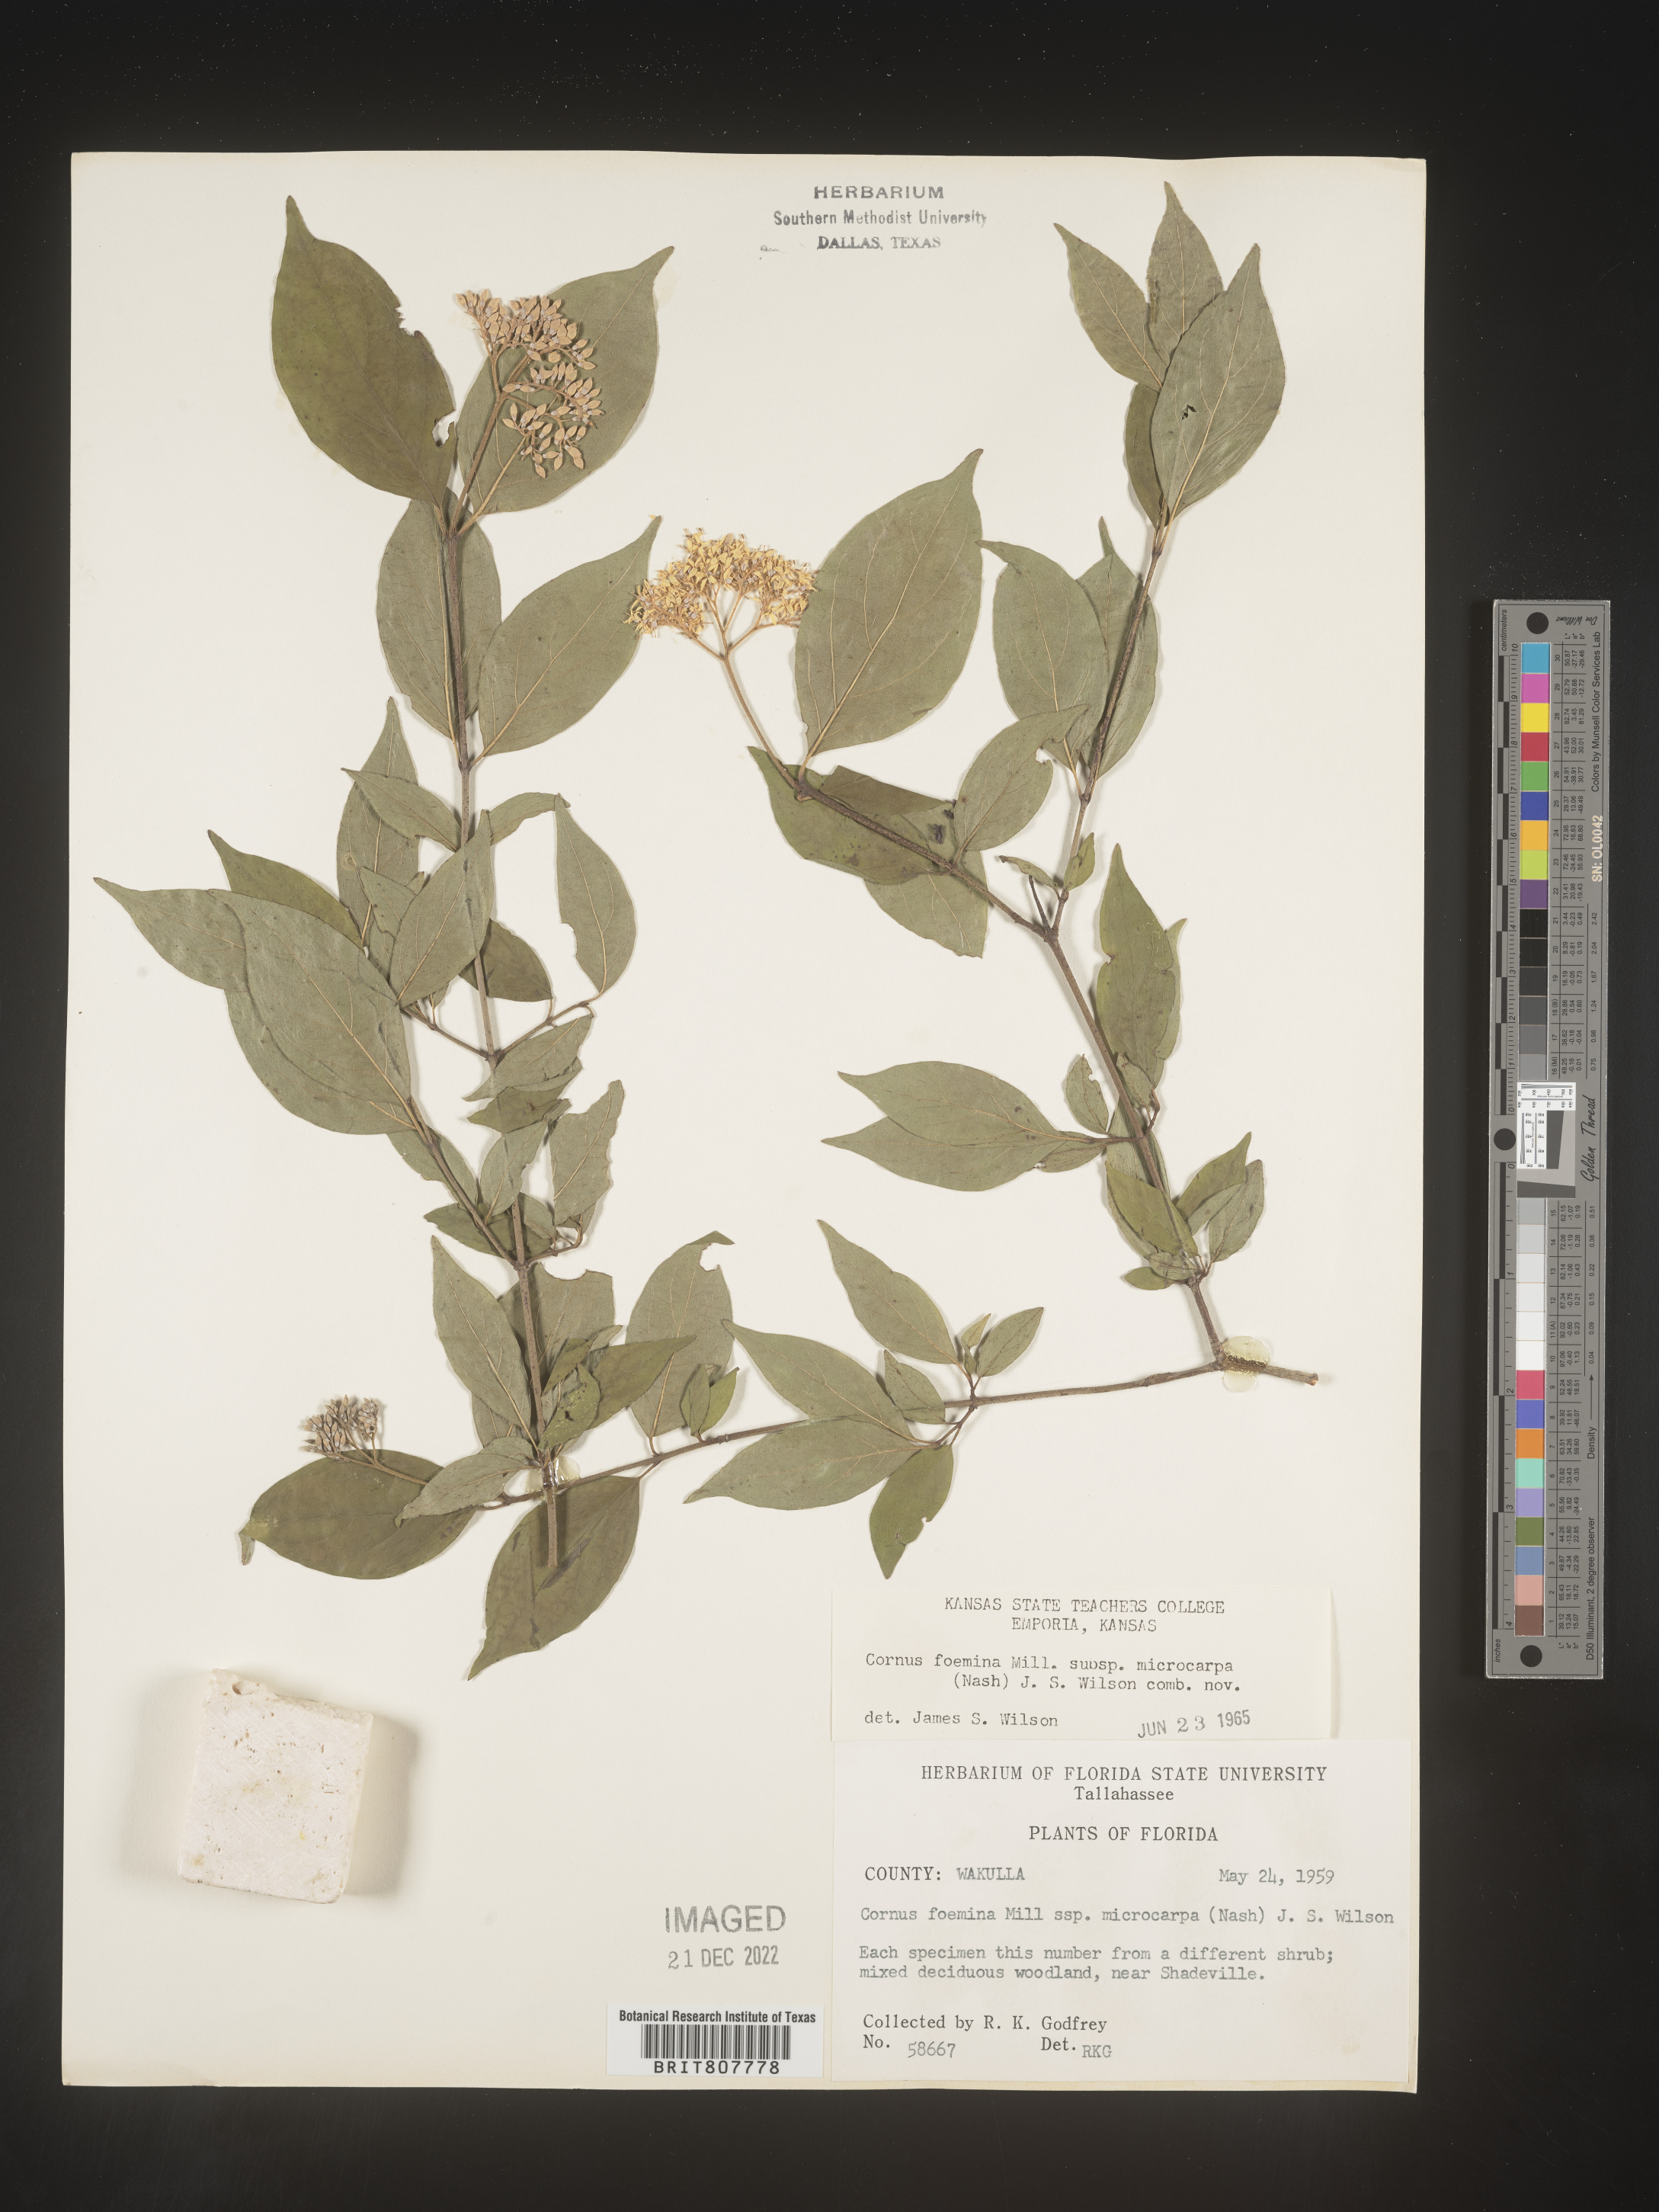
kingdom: Plantae
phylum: Tracheophyta
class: Magnoliopsida
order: Cornales
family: Cornaceae
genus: Cornus
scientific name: Cornus foemina
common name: Swamp dogwood
